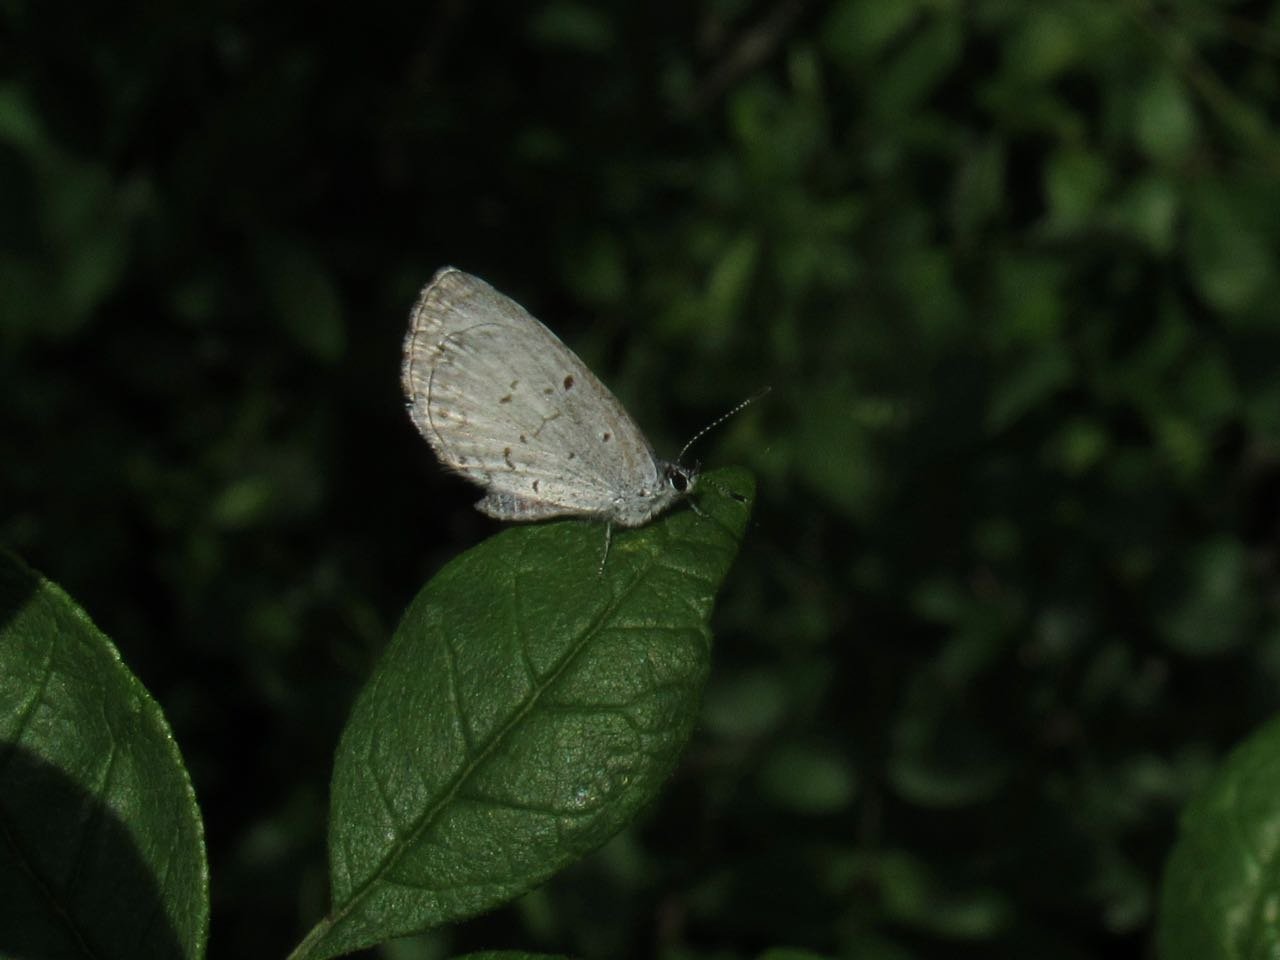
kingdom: Animalia
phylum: Arthropoda
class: Insecta
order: Lepidoptera
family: Lycaenidae
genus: Celastrina
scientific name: Celastrina lucia
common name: Northern Spring Azure
